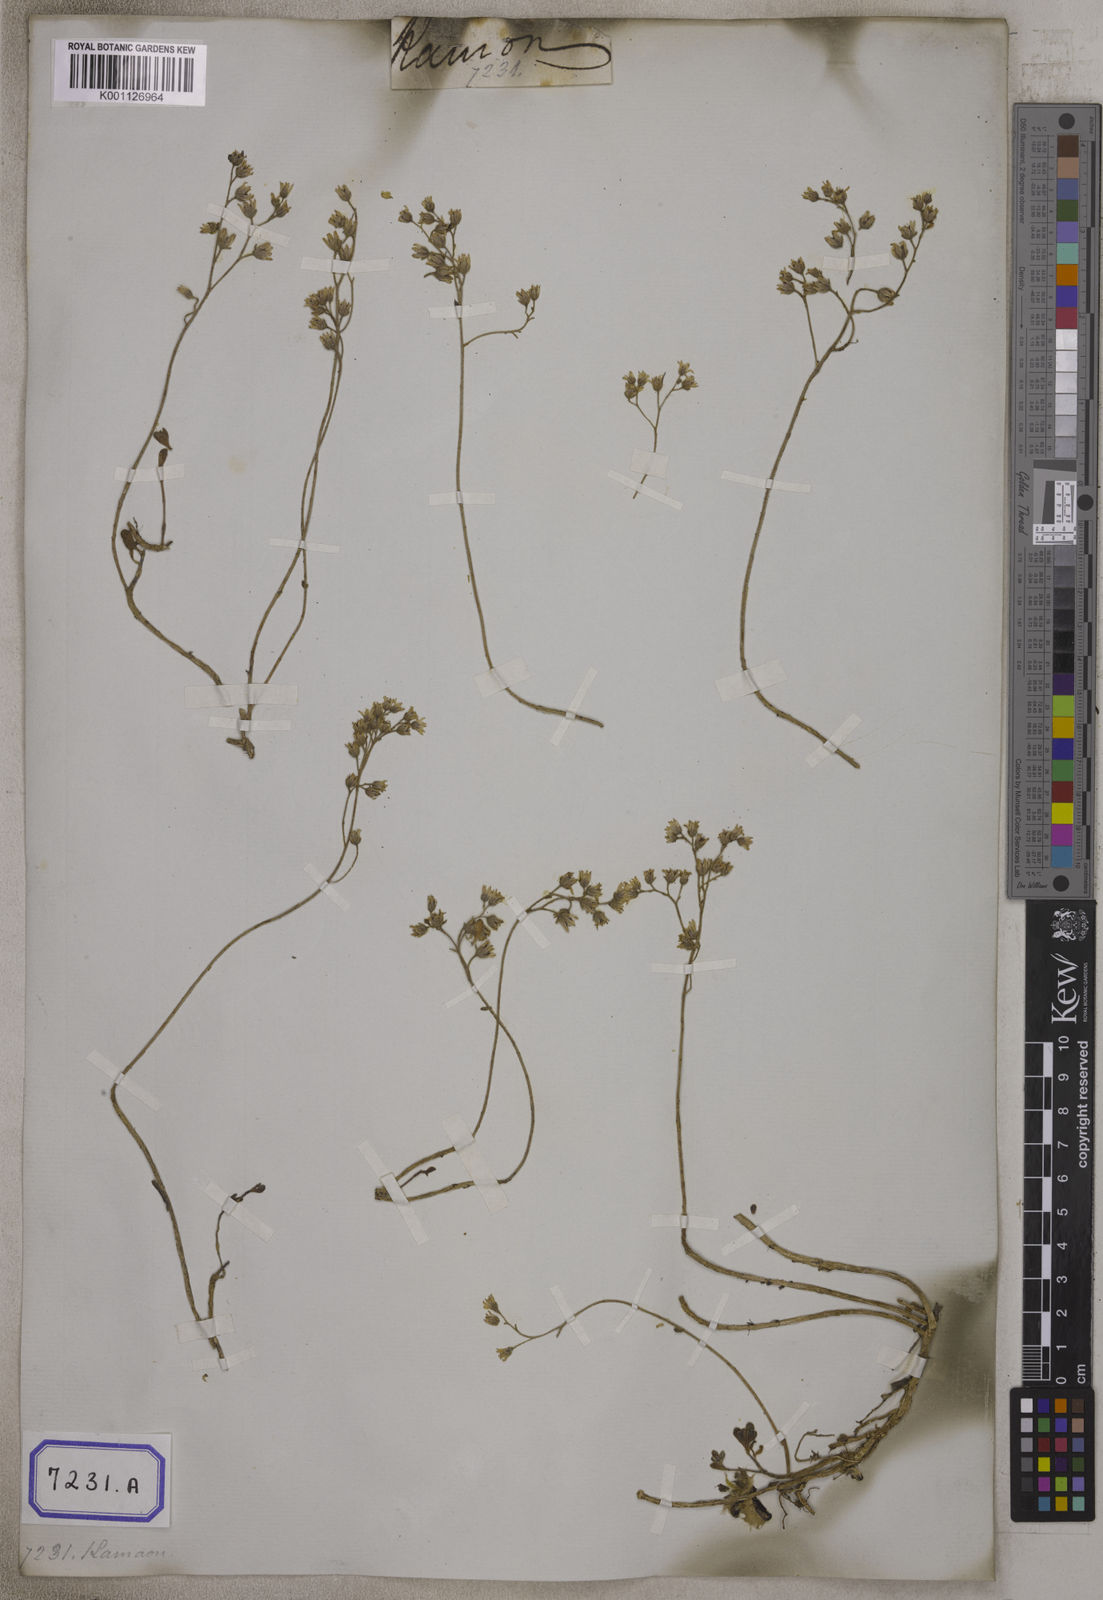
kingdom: Plantae
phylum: Tracheophyta
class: Magnoliopsida
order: Saxifragales
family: Crassulaceae
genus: Sedum
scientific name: Sedum
